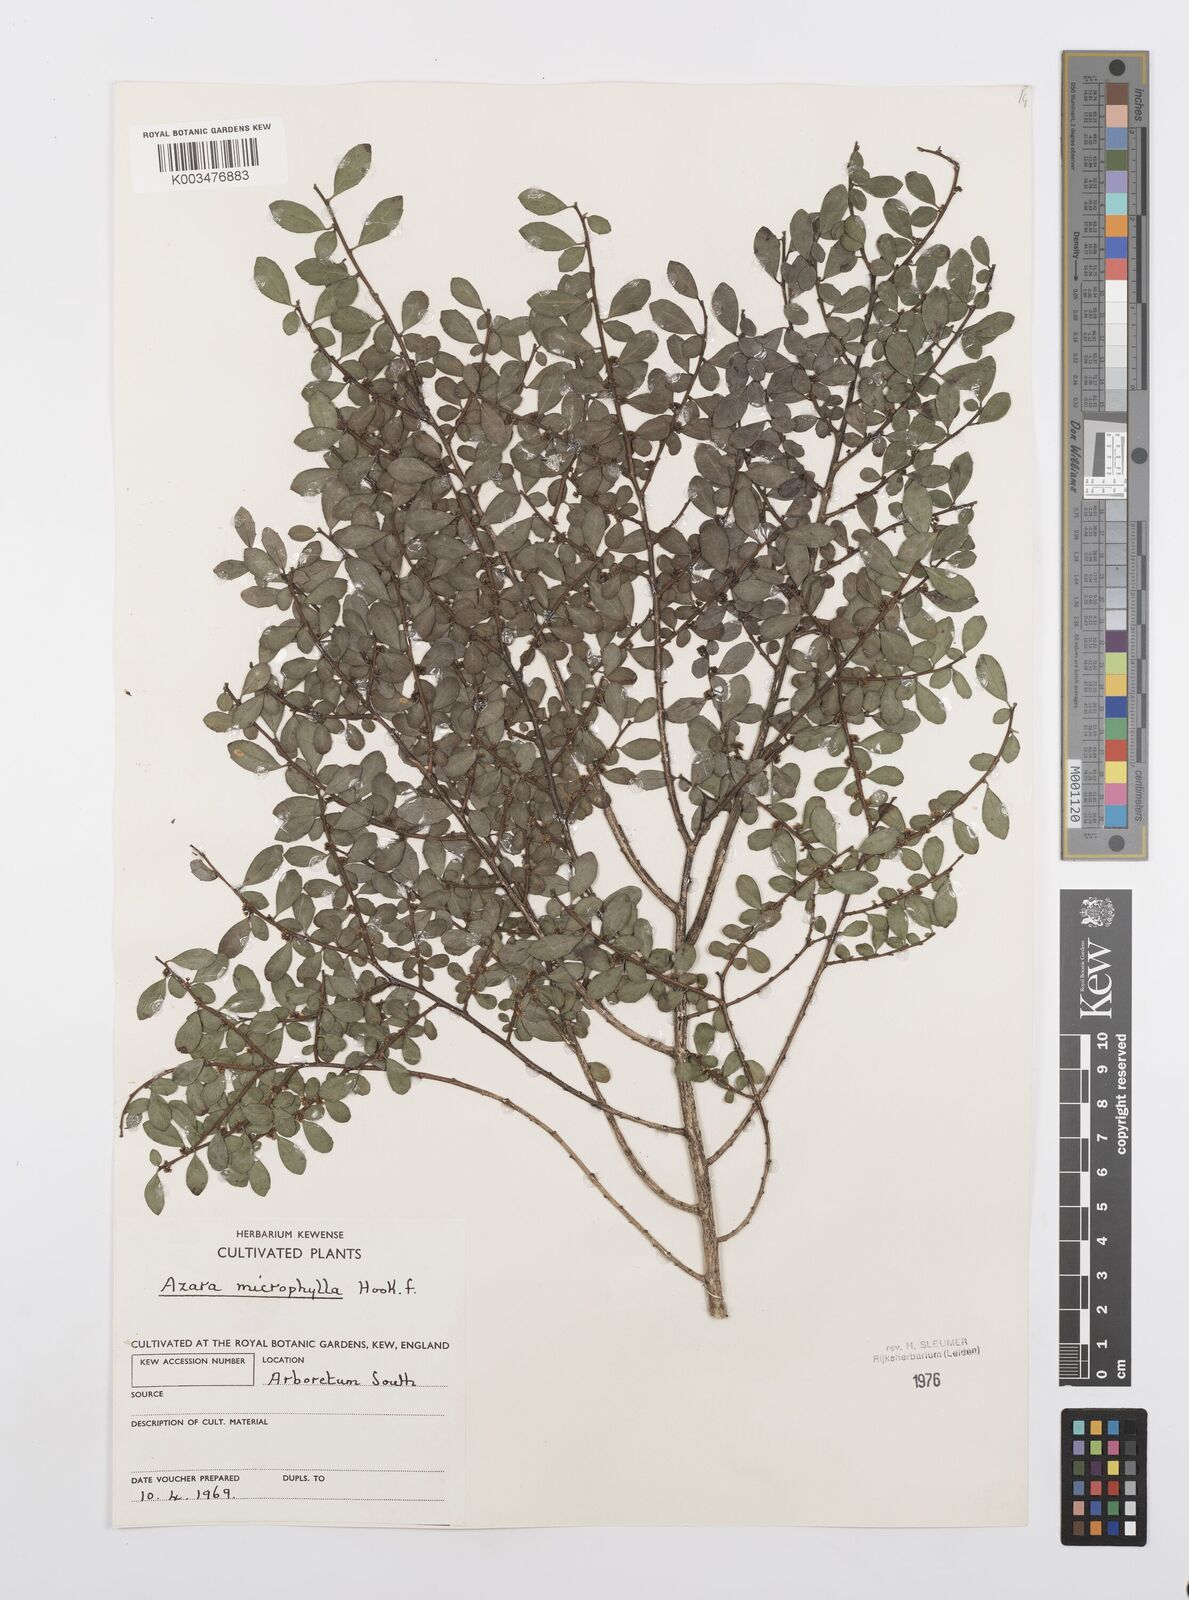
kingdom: Plantae
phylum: Tracheophyta
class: Magnoliopsida
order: Malpighiales
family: Salicaceae
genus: Azara
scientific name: Azara microphylla
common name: Box-leaf azara
